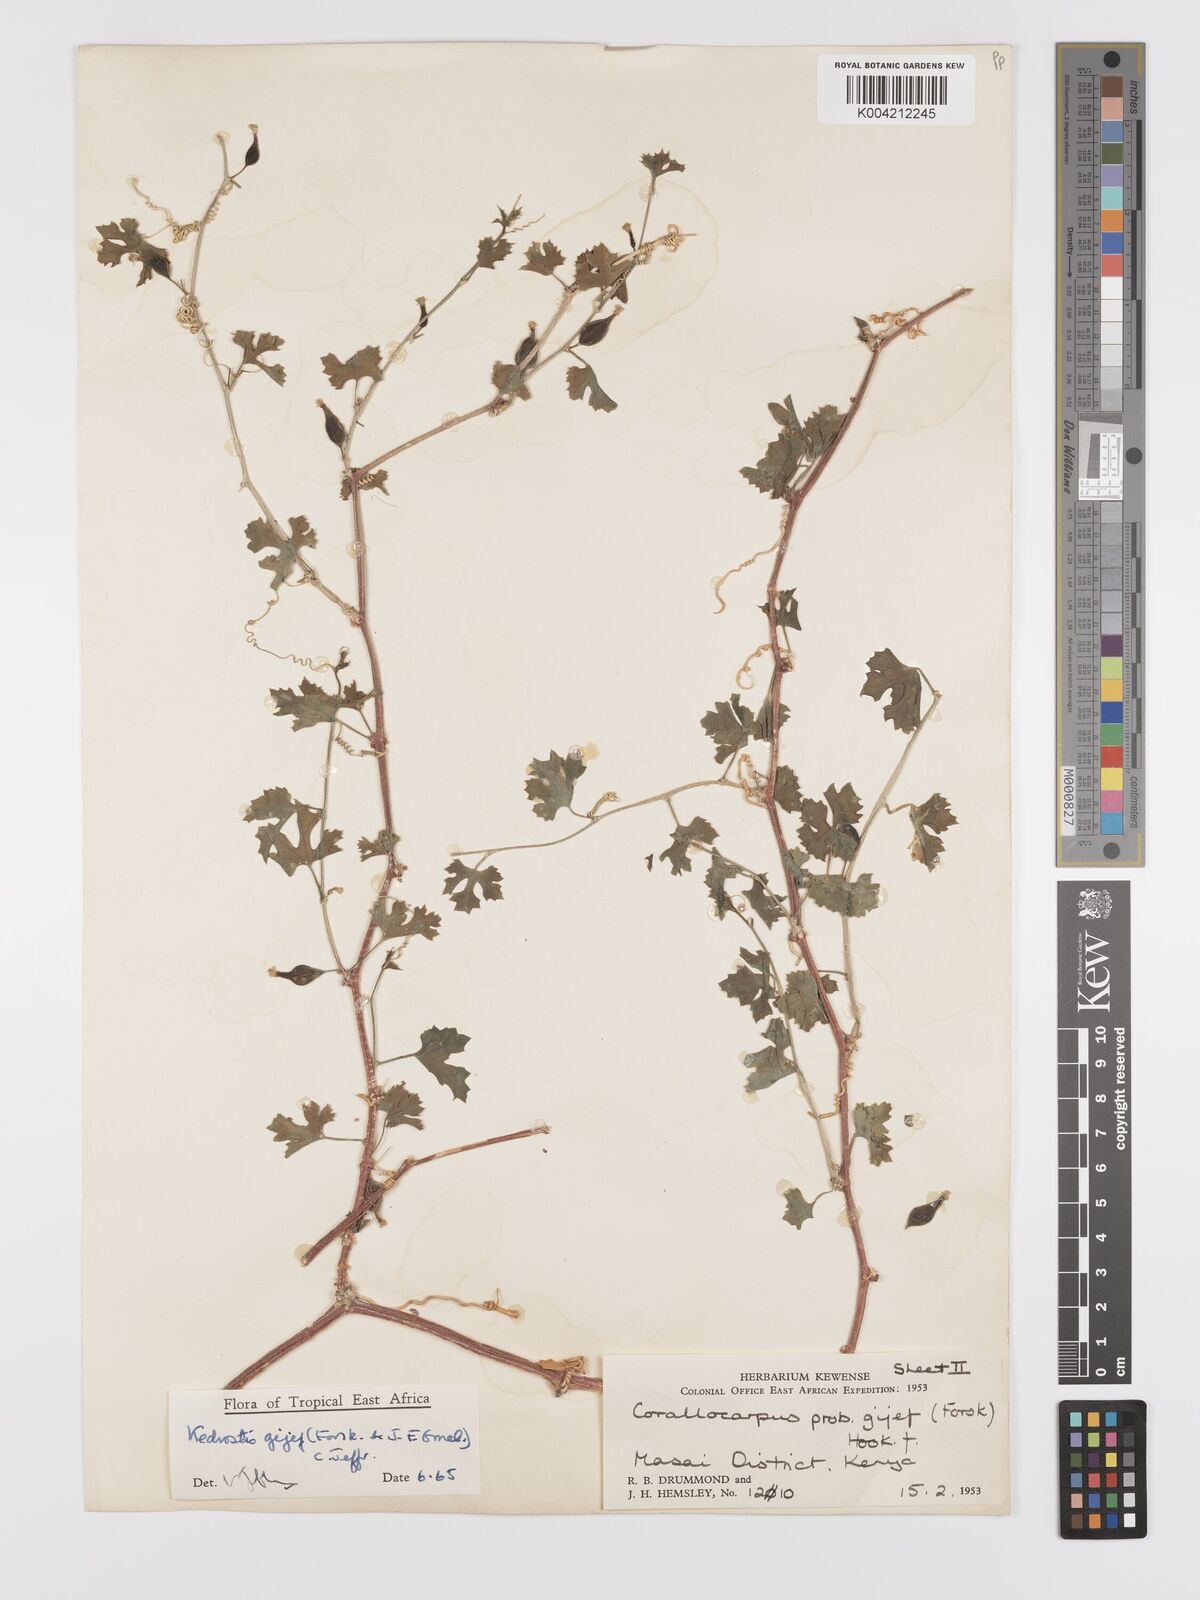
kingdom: Plantae
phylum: Tracheophyta
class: Magnoliopsida
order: Cucurbitales
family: Cucurbitaceae
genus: Kedrostis
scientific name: Kedrostis gijef
